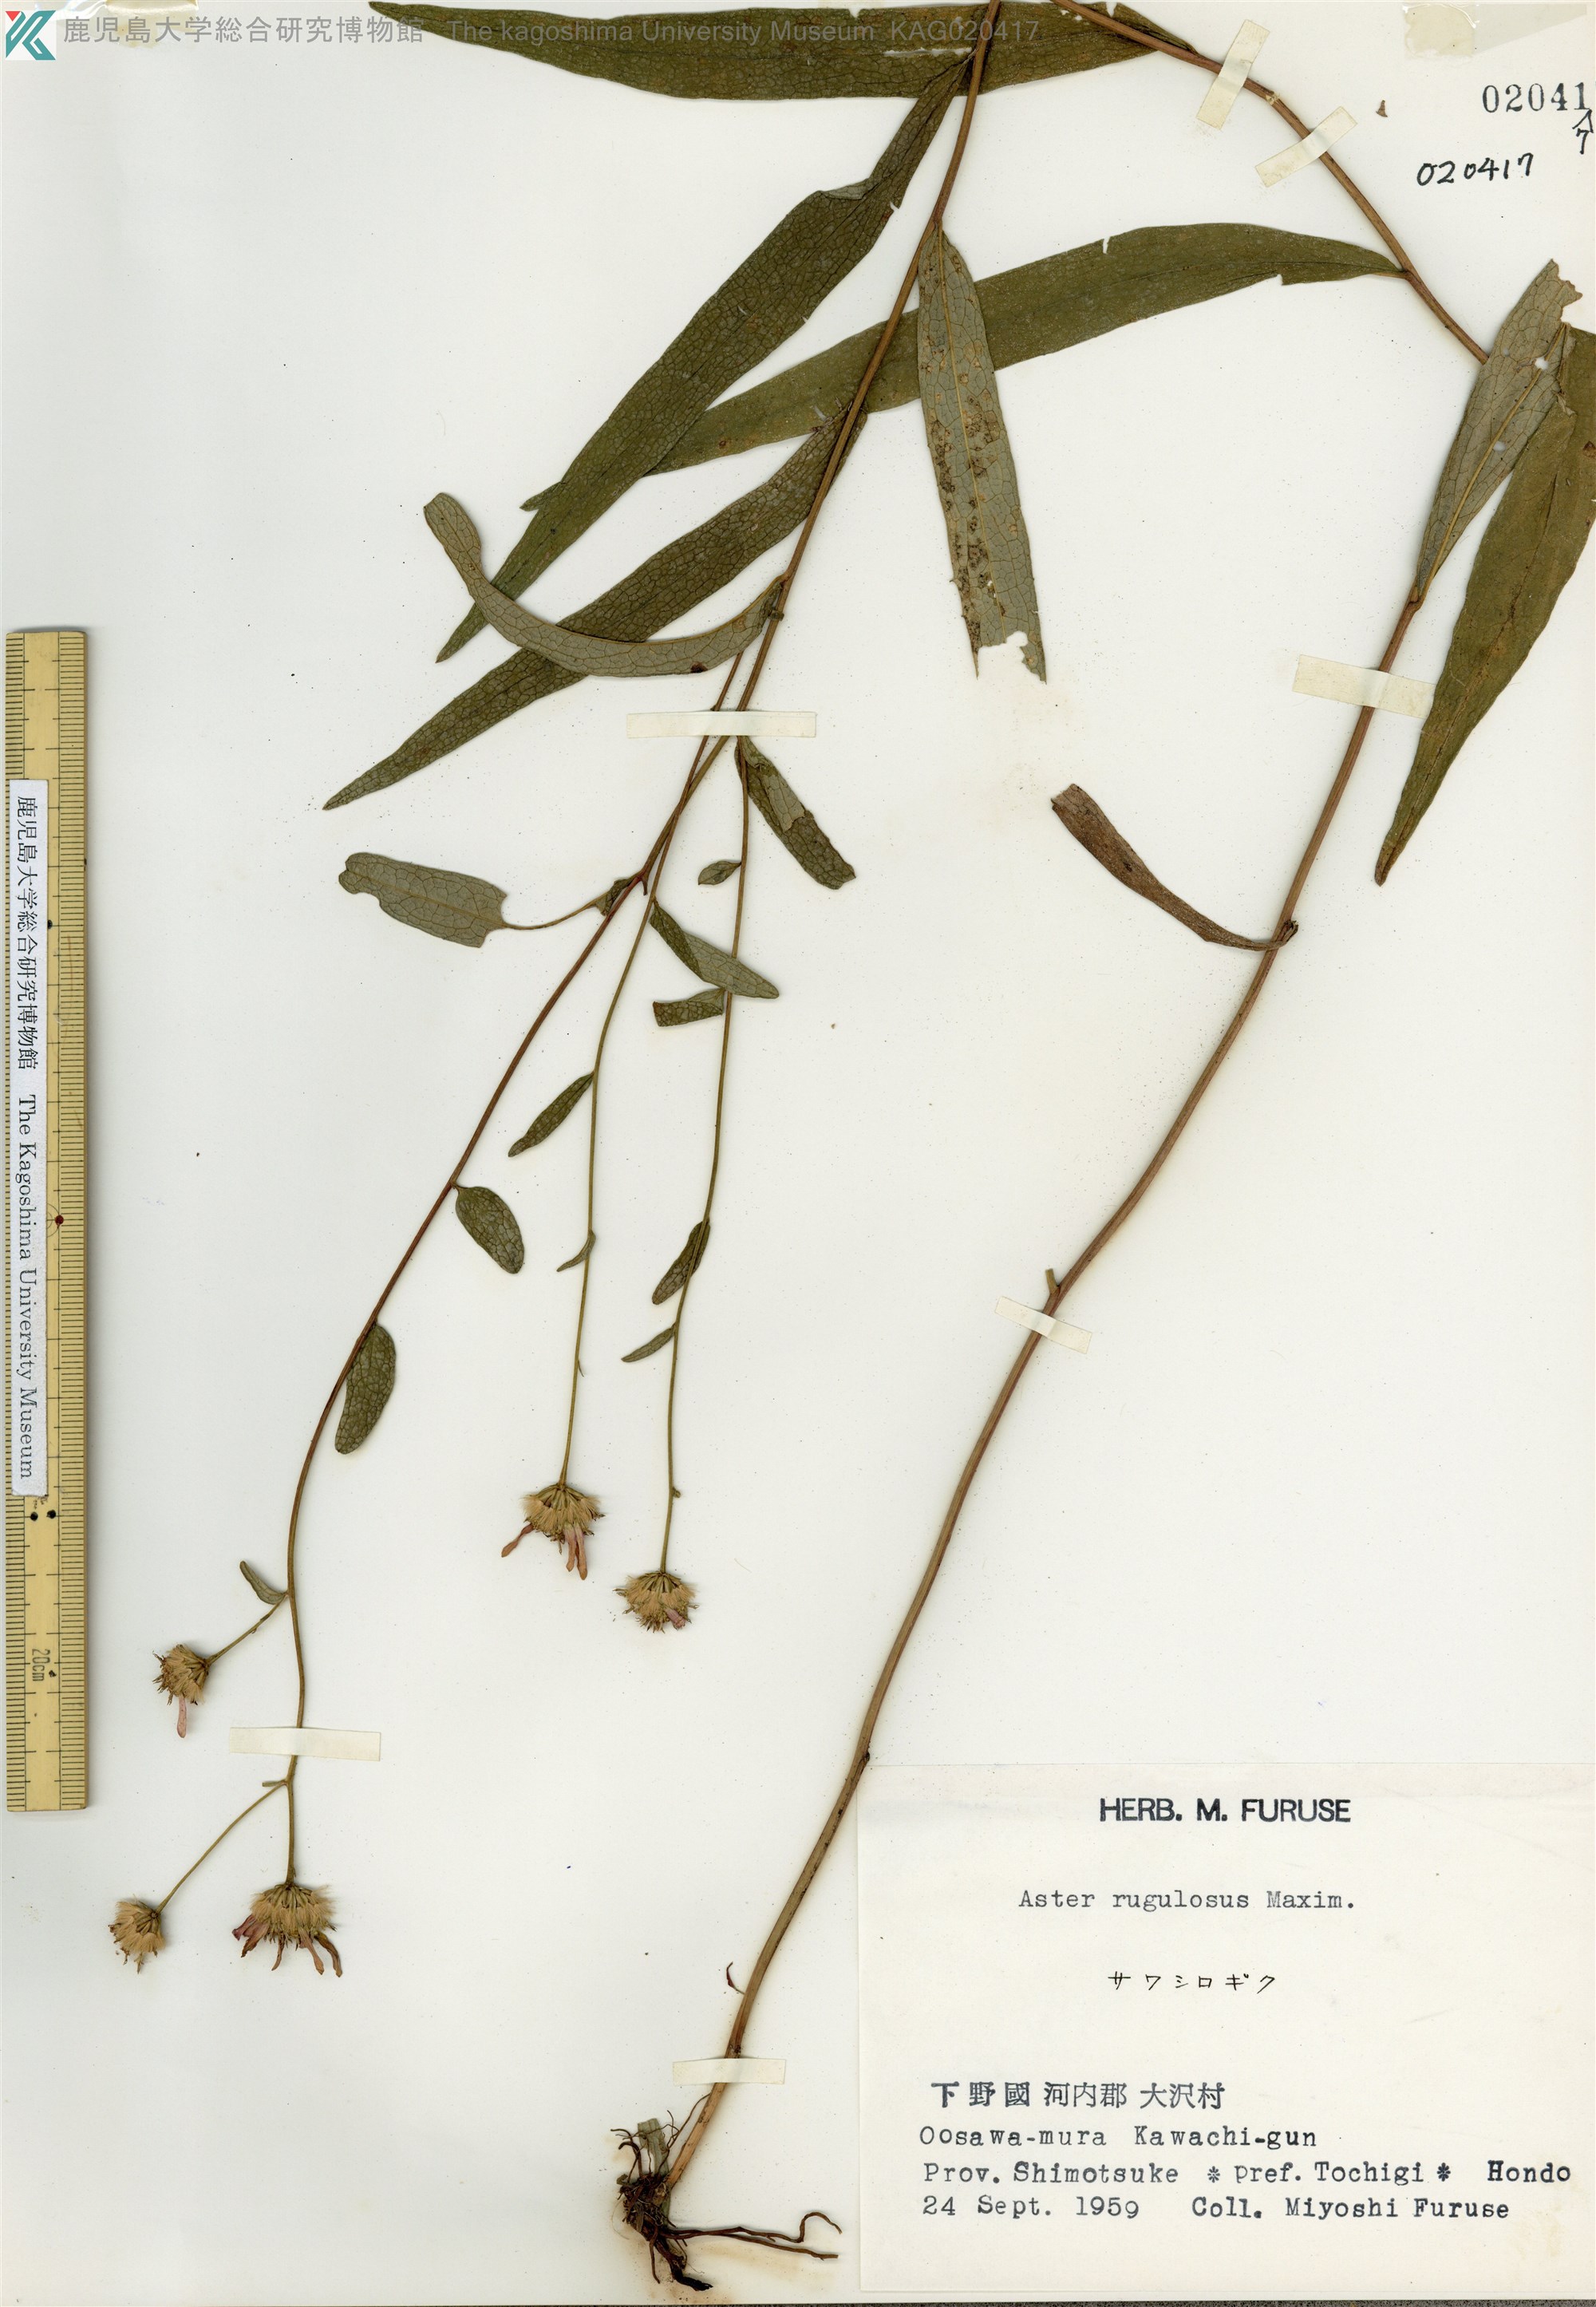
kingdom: Plantae
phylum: Tracheophyta
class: Magnoliopsida
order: Asterales
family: Asteraceae
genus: Cardiagyris
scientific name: Cardiagyris rugulosa
